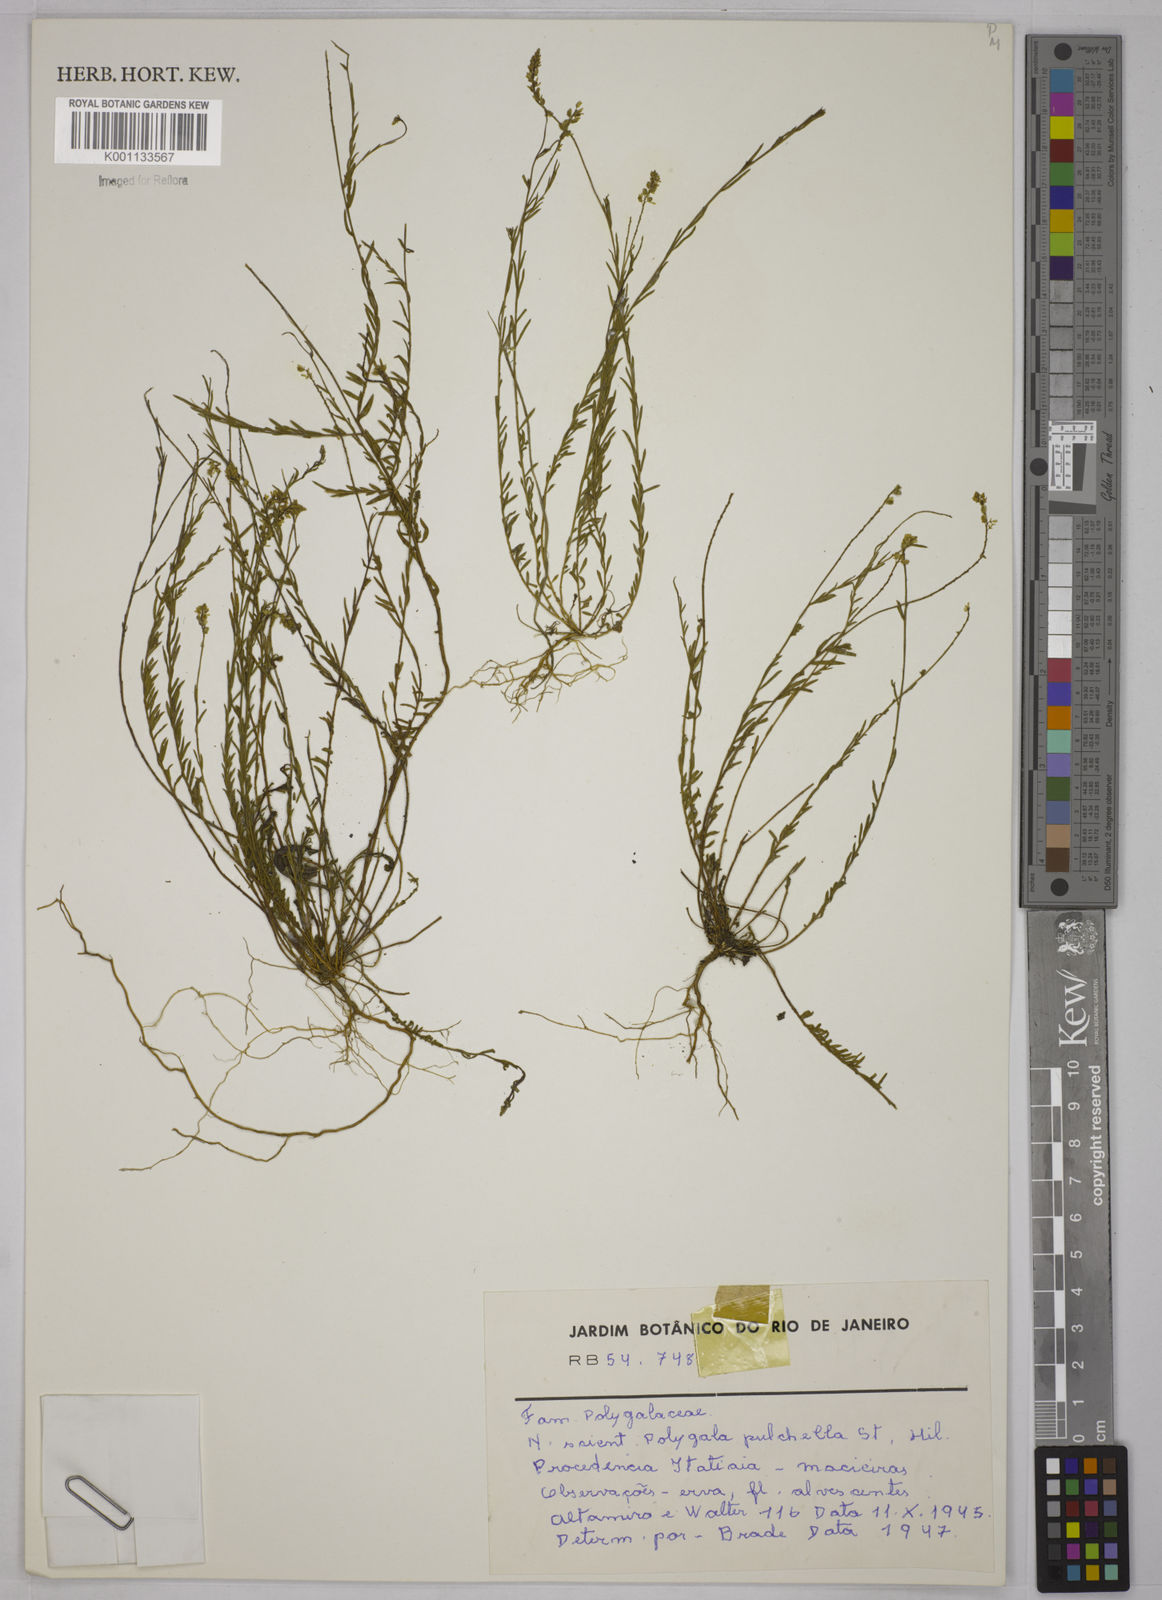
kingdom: Plantae
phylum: Tracheophyta
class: Magnoliopsida
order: Fabales
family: Polygalaceae
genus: Polygala
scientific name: Polygala pulchella
